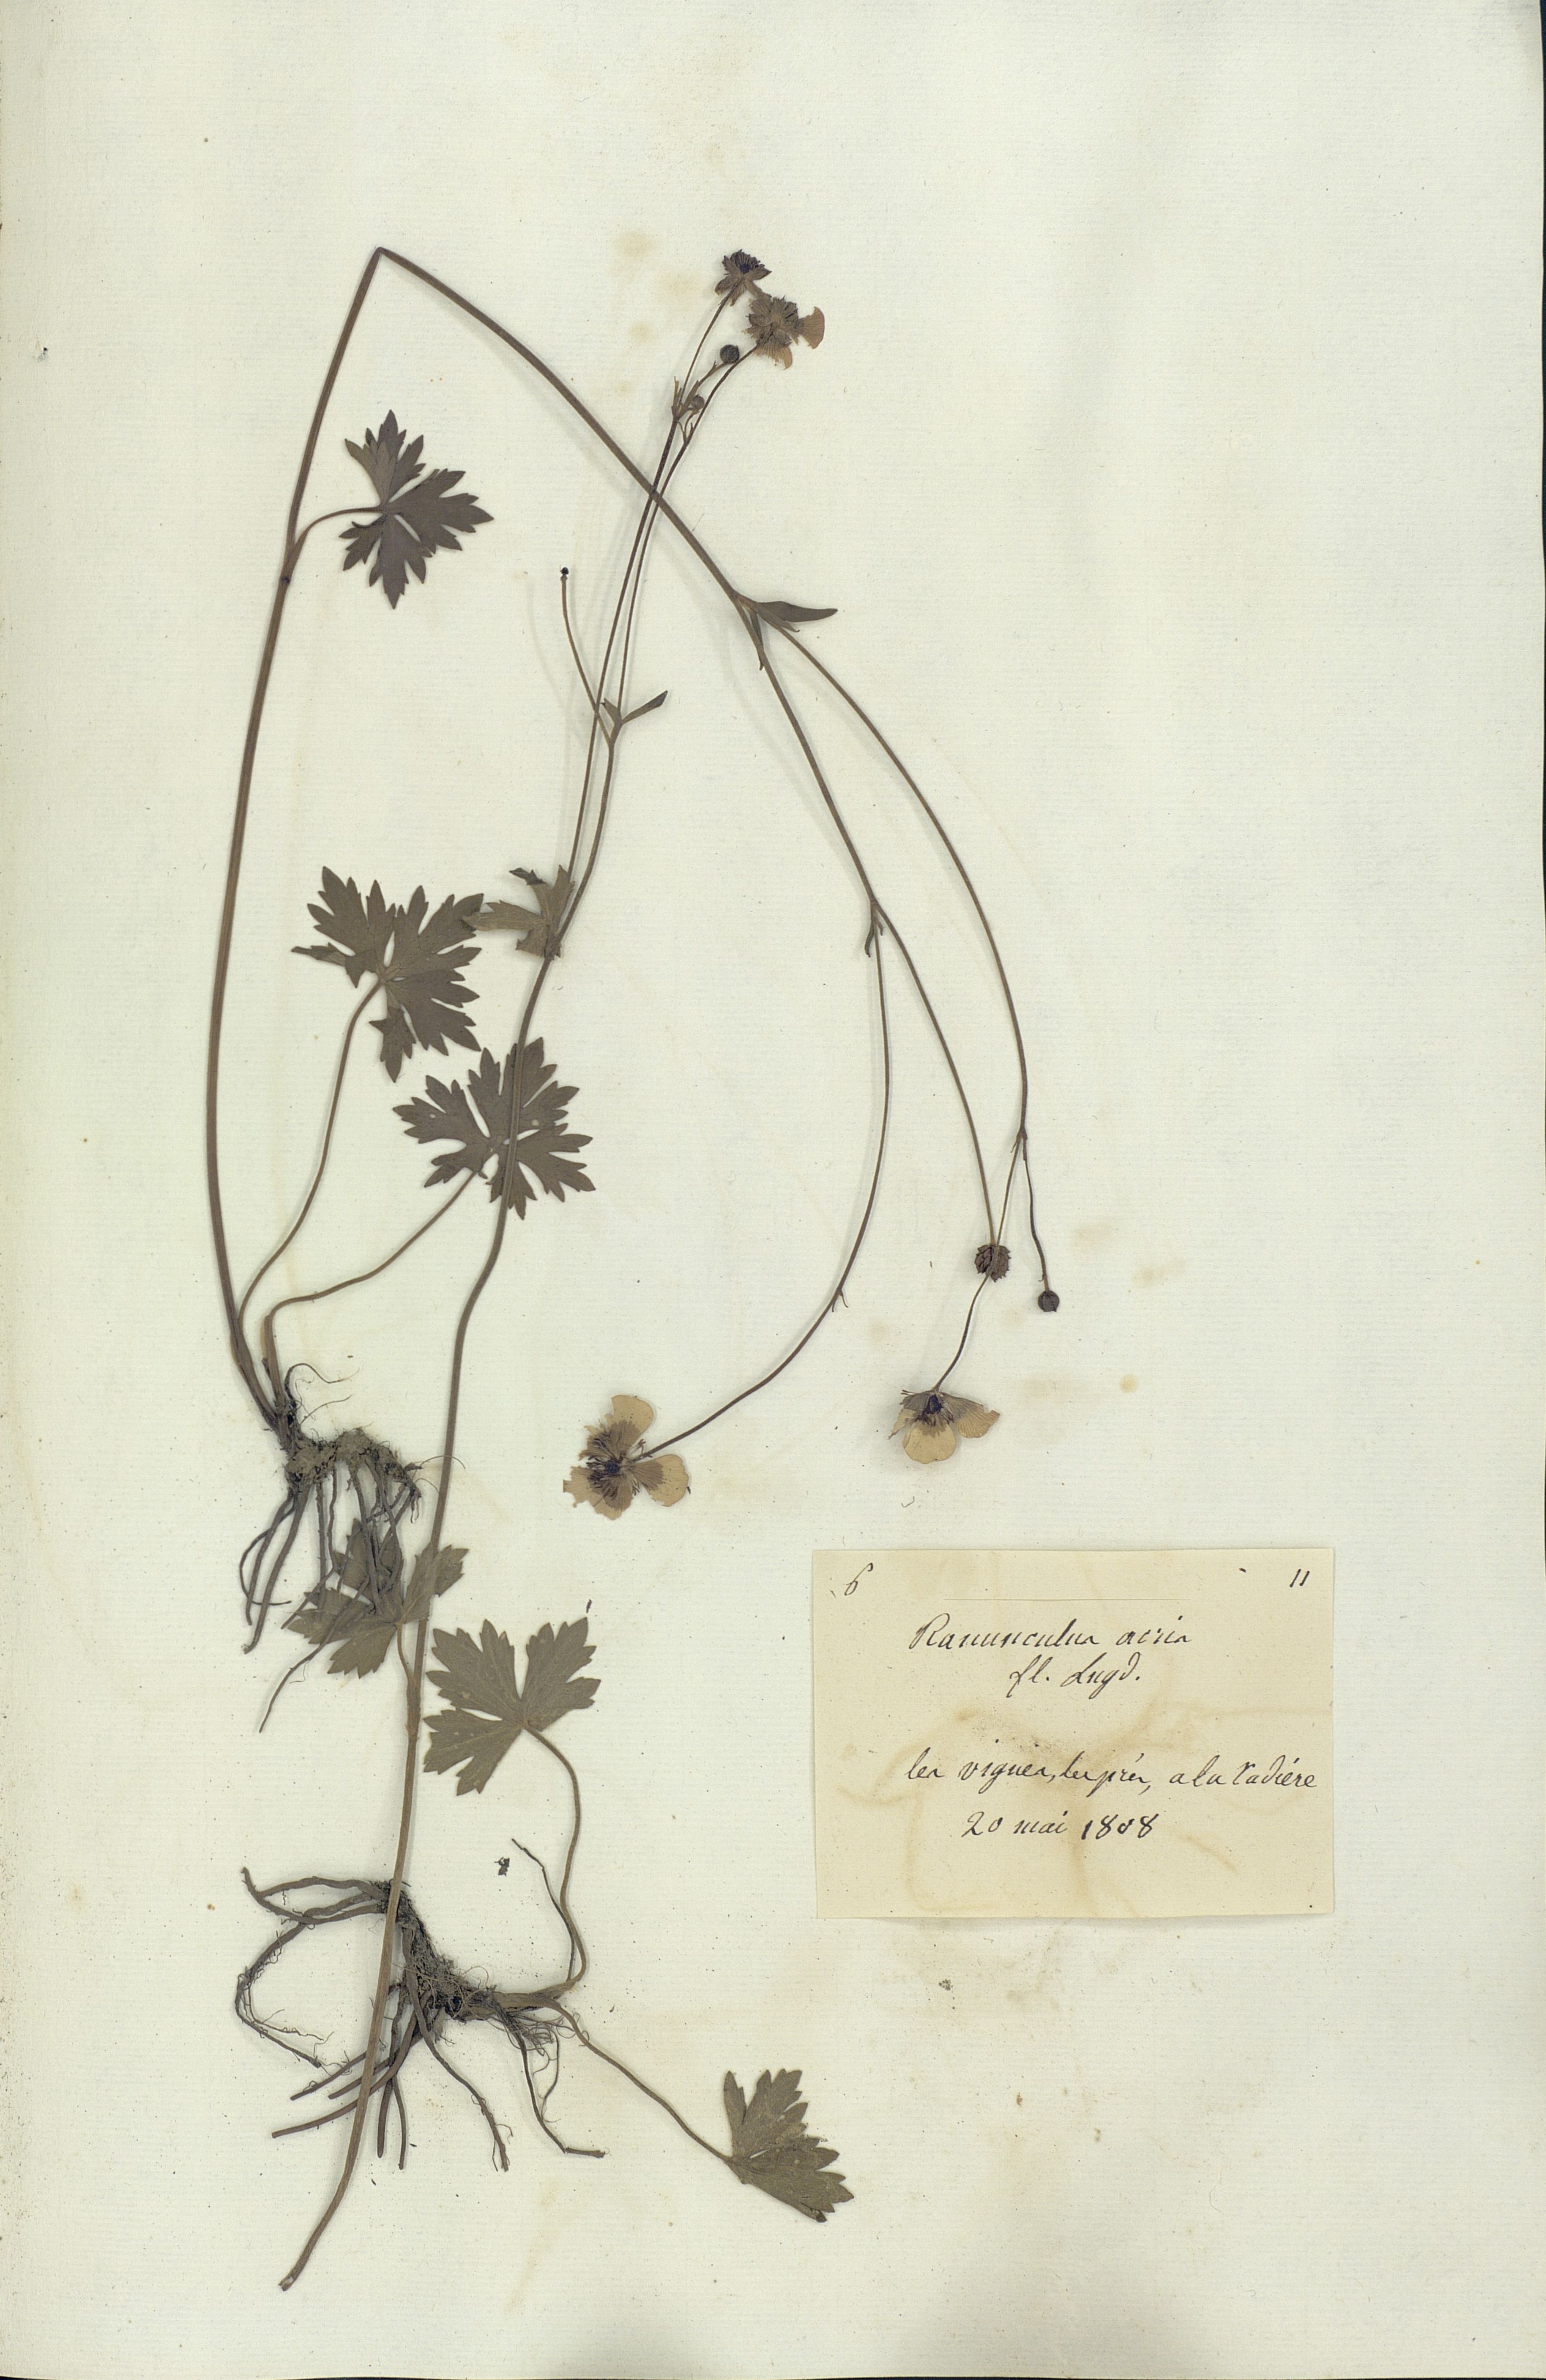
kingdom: Plantae
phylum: Tracheophyta
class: Magnoliopsida
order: Ranunculales
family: Ranunculaceae
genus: Ranunculus
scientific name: Ranunculus acris
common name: Meadow buttercup
